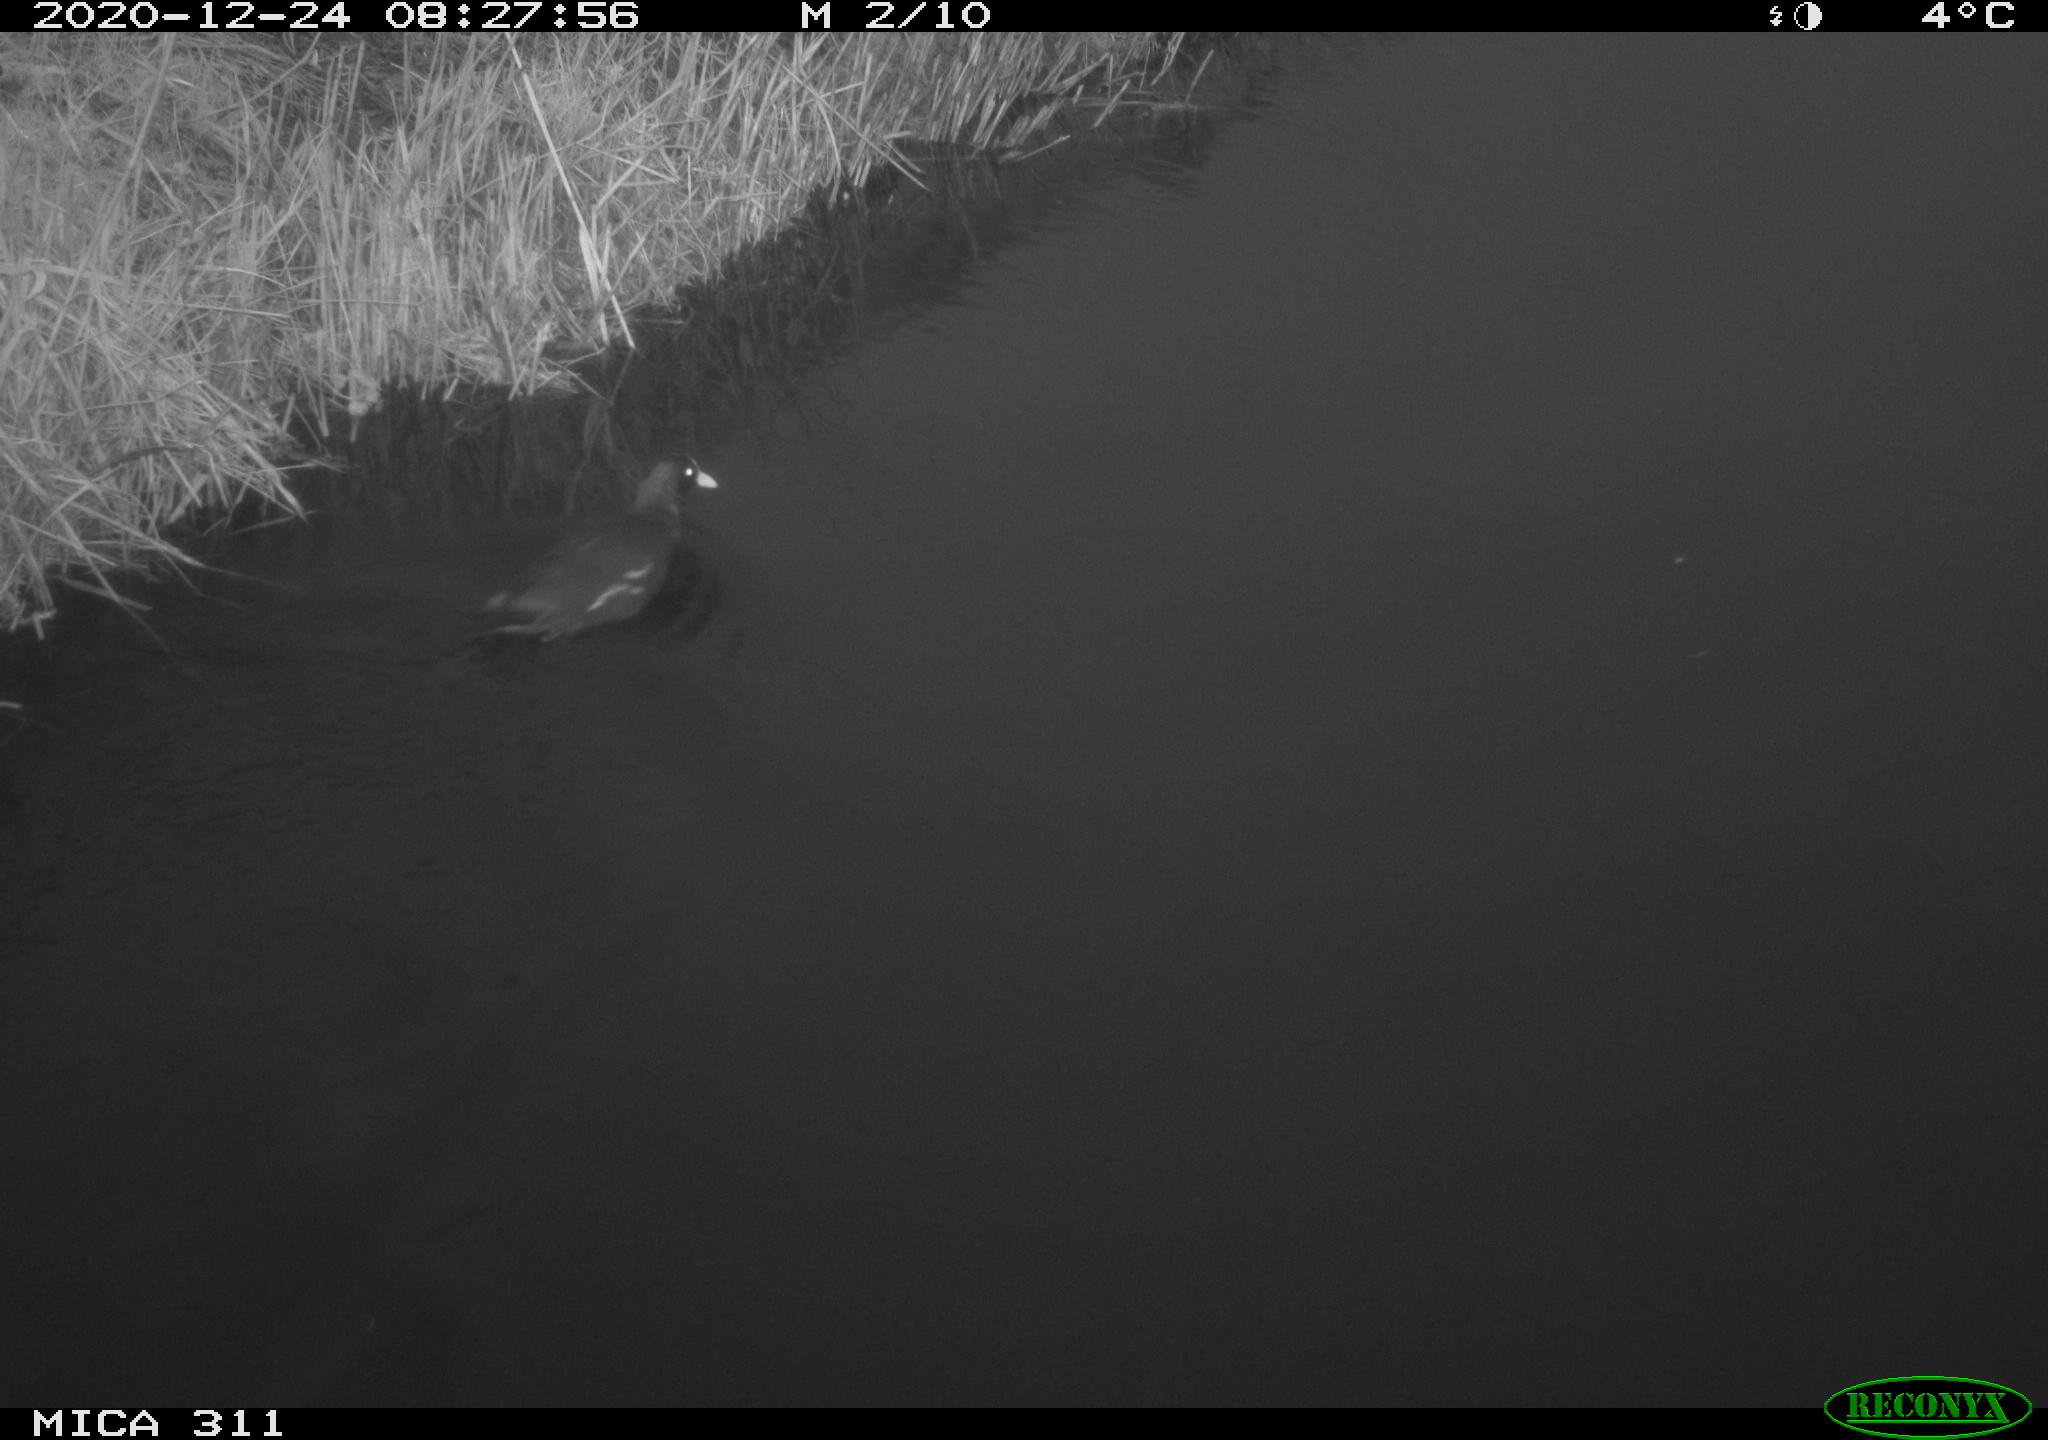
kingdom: Animalia
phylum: Chordata
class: Aves
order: Gruiformes
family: Rallidae
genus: Gallinula
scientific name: Gallinula chloropus
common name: Common moorhen
